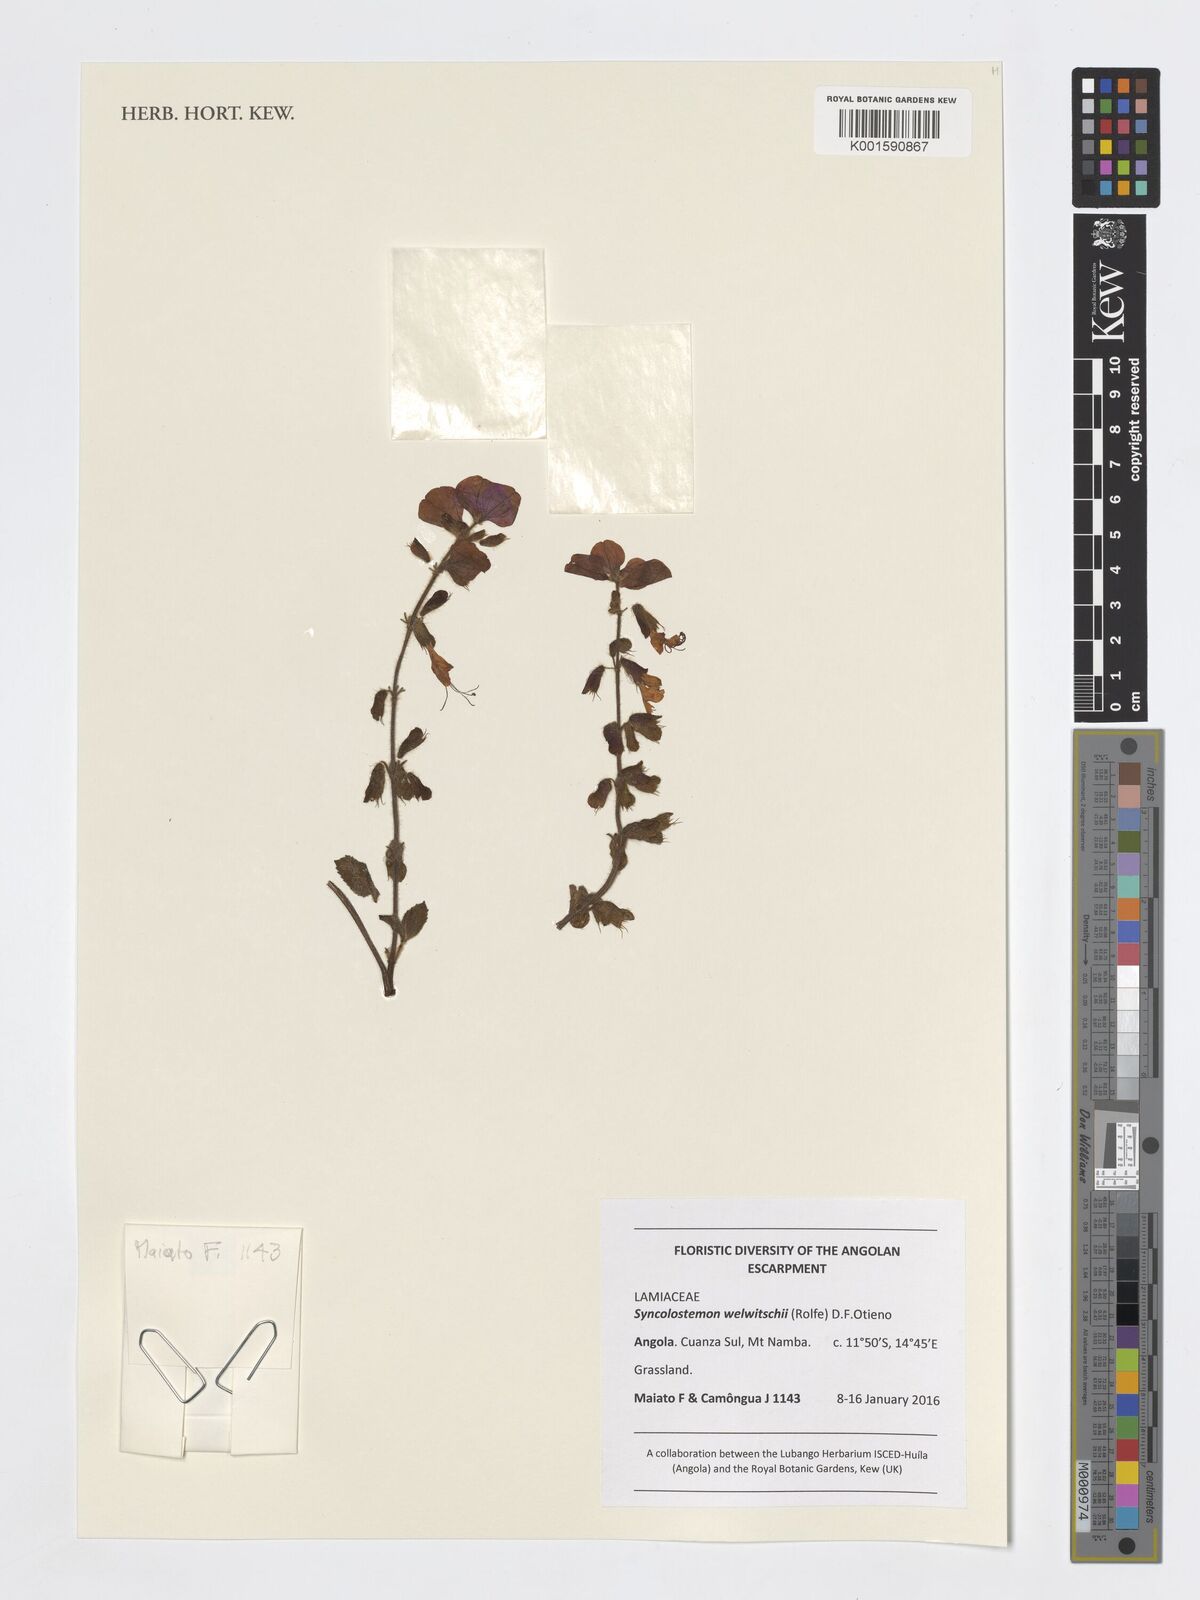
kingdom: Plantae
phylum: Tracheophyta
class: Magnoliopsida
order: Lamiales
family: Lamiaceae
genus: Syncolostemon
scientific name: Syncolostemon welwitschii
